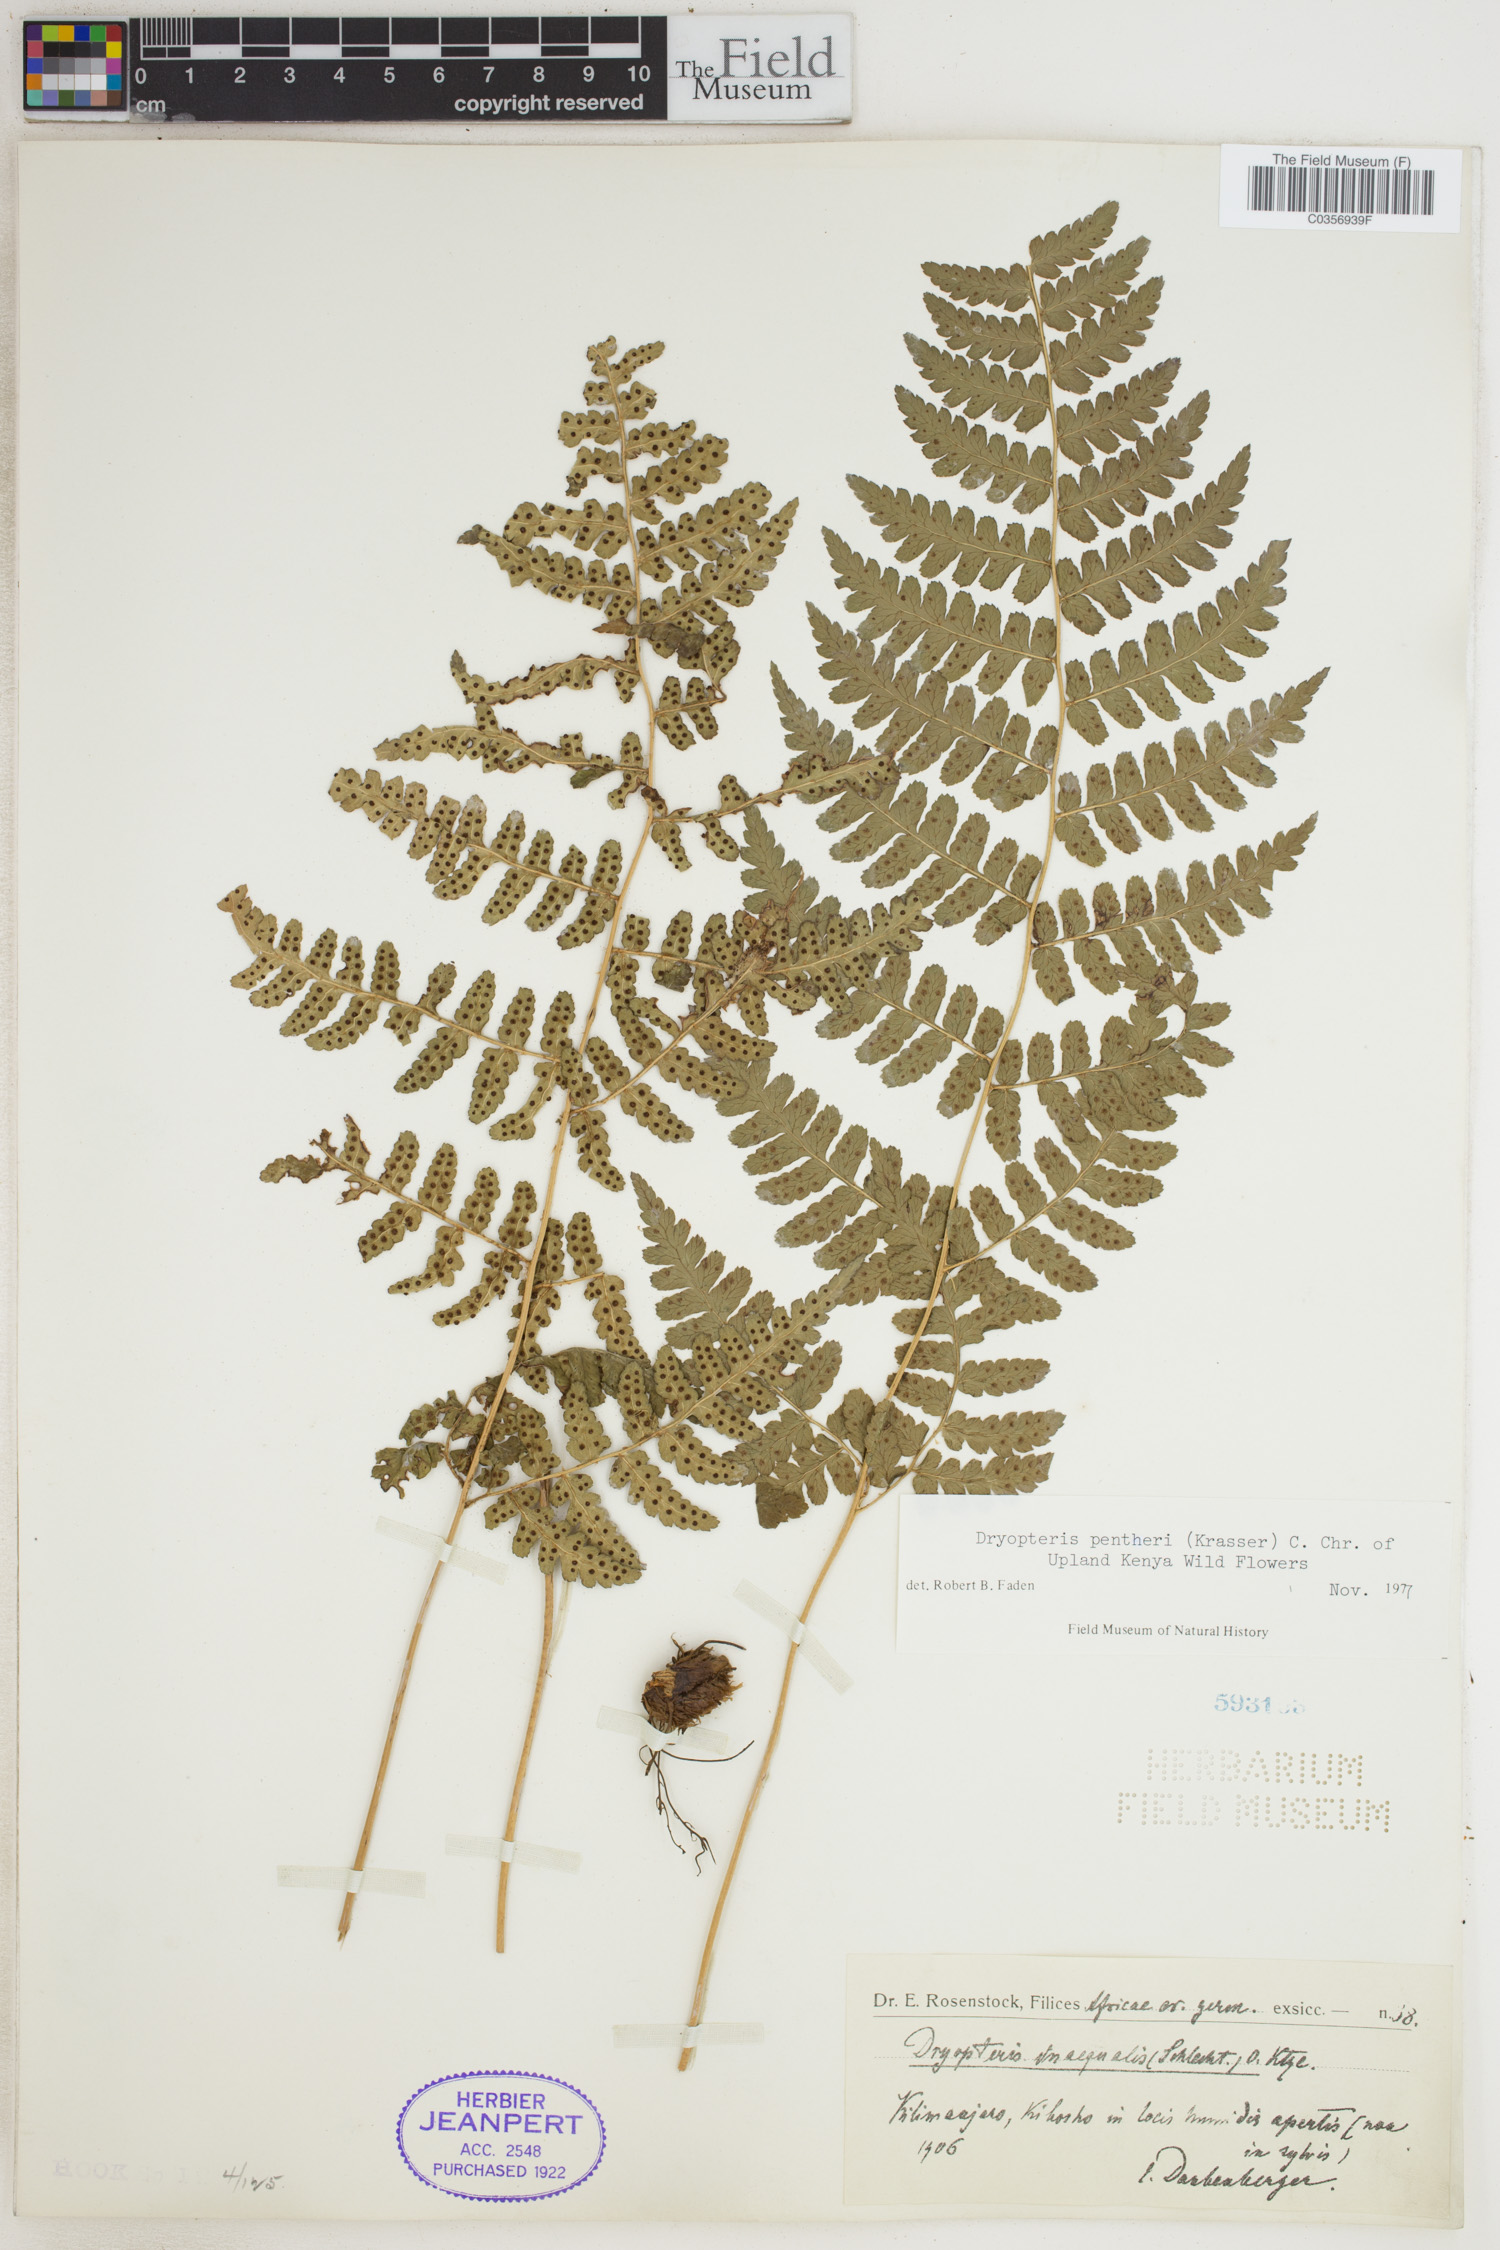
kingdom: Plantae
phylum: Tracheophyta
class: Polypodiopsida
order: Polypodiales
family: Dryopteridaceae
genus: Dryopteris
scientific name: Dryopteris pentheri
